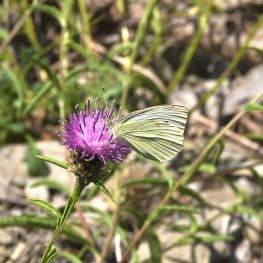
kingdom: Animalia
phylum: Arthropoda
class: Insecta
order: Lepidoptera
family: Pieridae
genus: Pieris
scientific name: Pieris rapae
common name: Cabbage White
